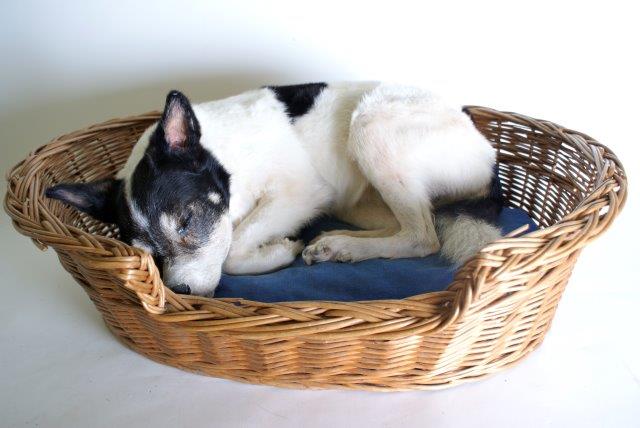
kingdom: Animalia
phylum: Chordata
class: Mammalia
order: Carnivora
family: Canidae
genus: Canis
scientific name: Canis lupus
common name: Gray wolf
